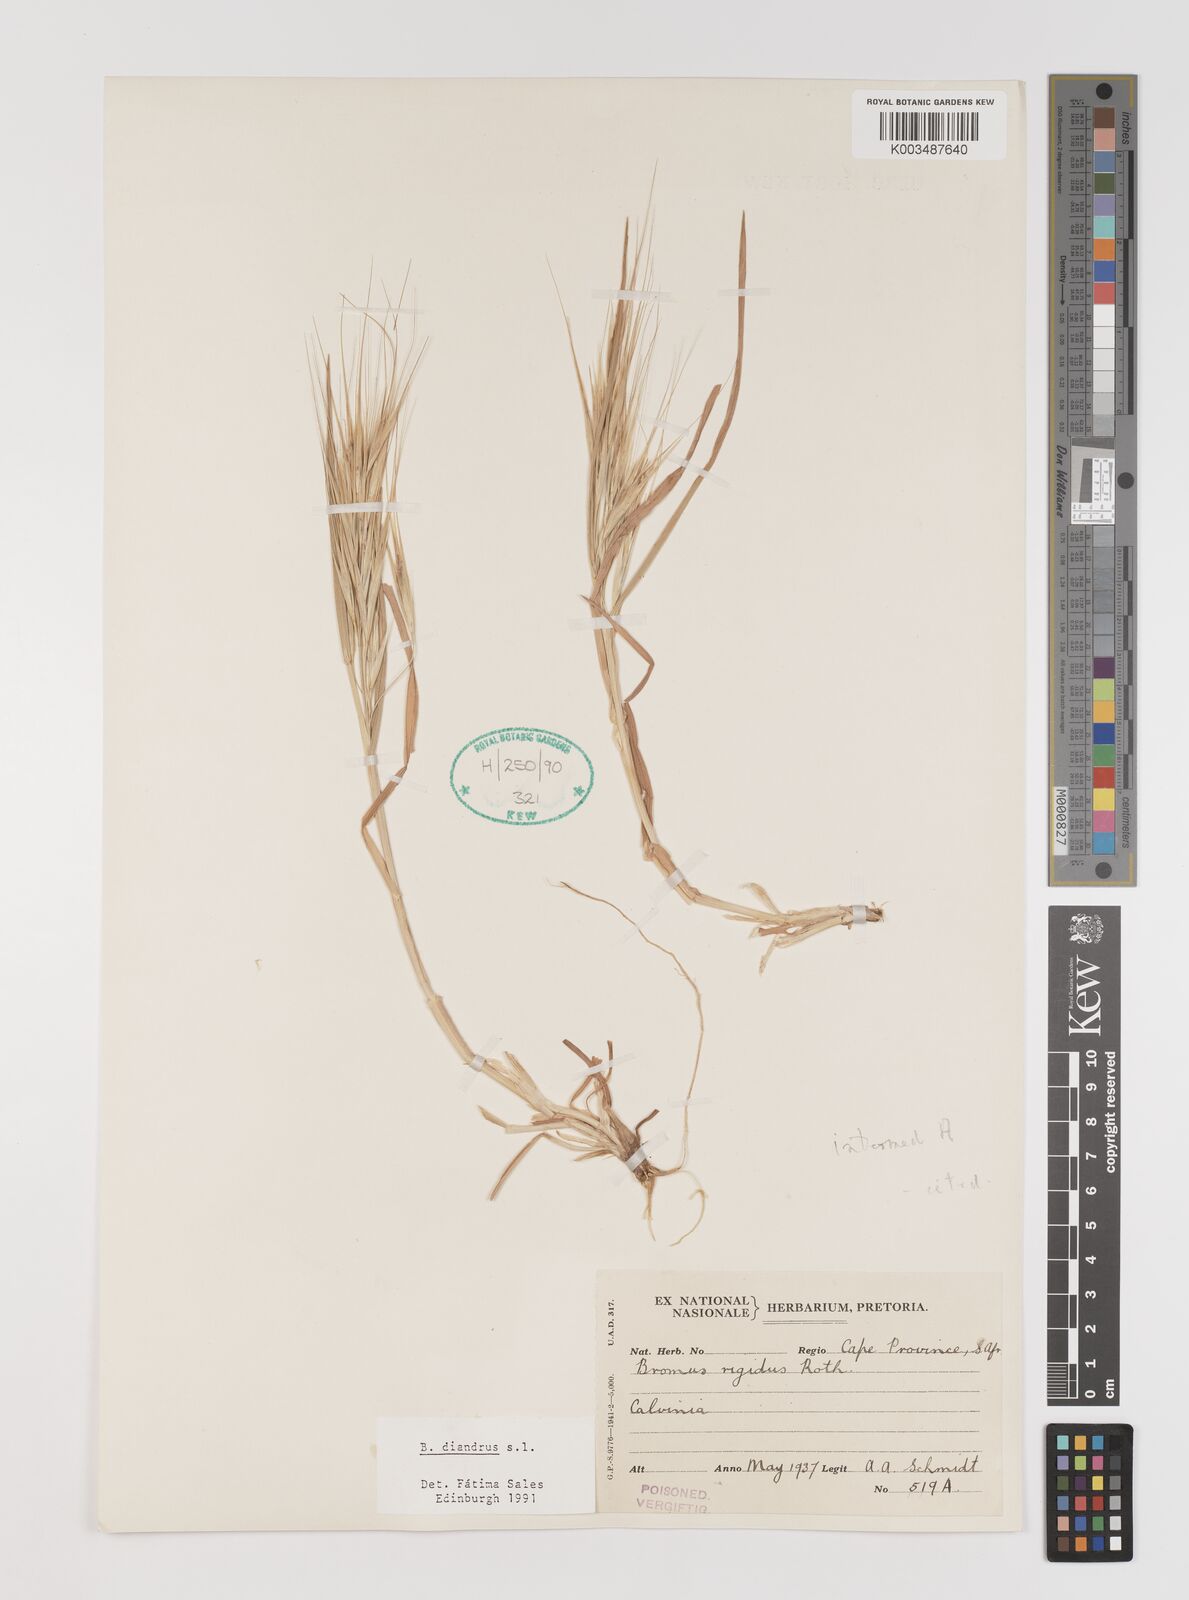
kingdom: Plantae
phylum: Tracheophyta
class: Liliopsida
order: Poales
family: Poaceae
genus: Bromus
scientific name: Bromus diandrus
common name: Ripgut brome
